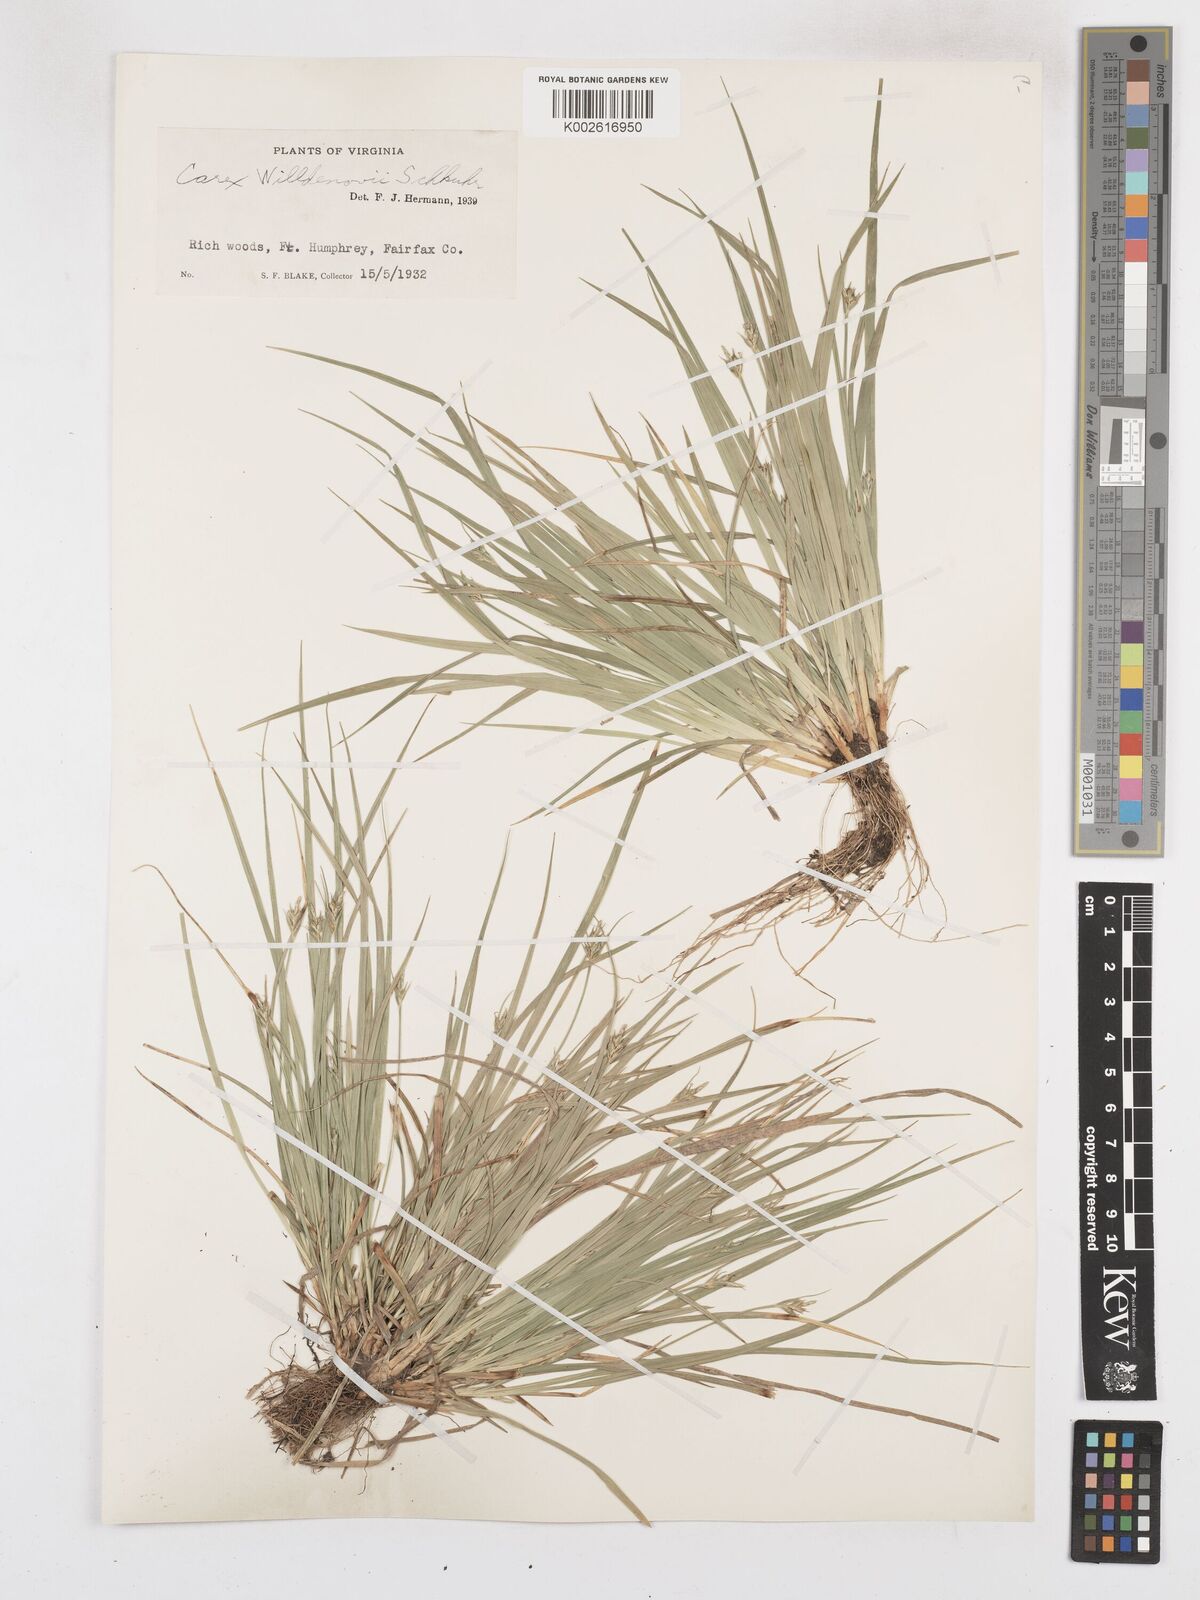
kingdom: Plantae
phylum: Tracheophyta
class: Liliopsida
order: Poales
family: Cyperaceae
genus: Carex
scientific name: Carex willdenowii
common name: Willdenow's sedge
